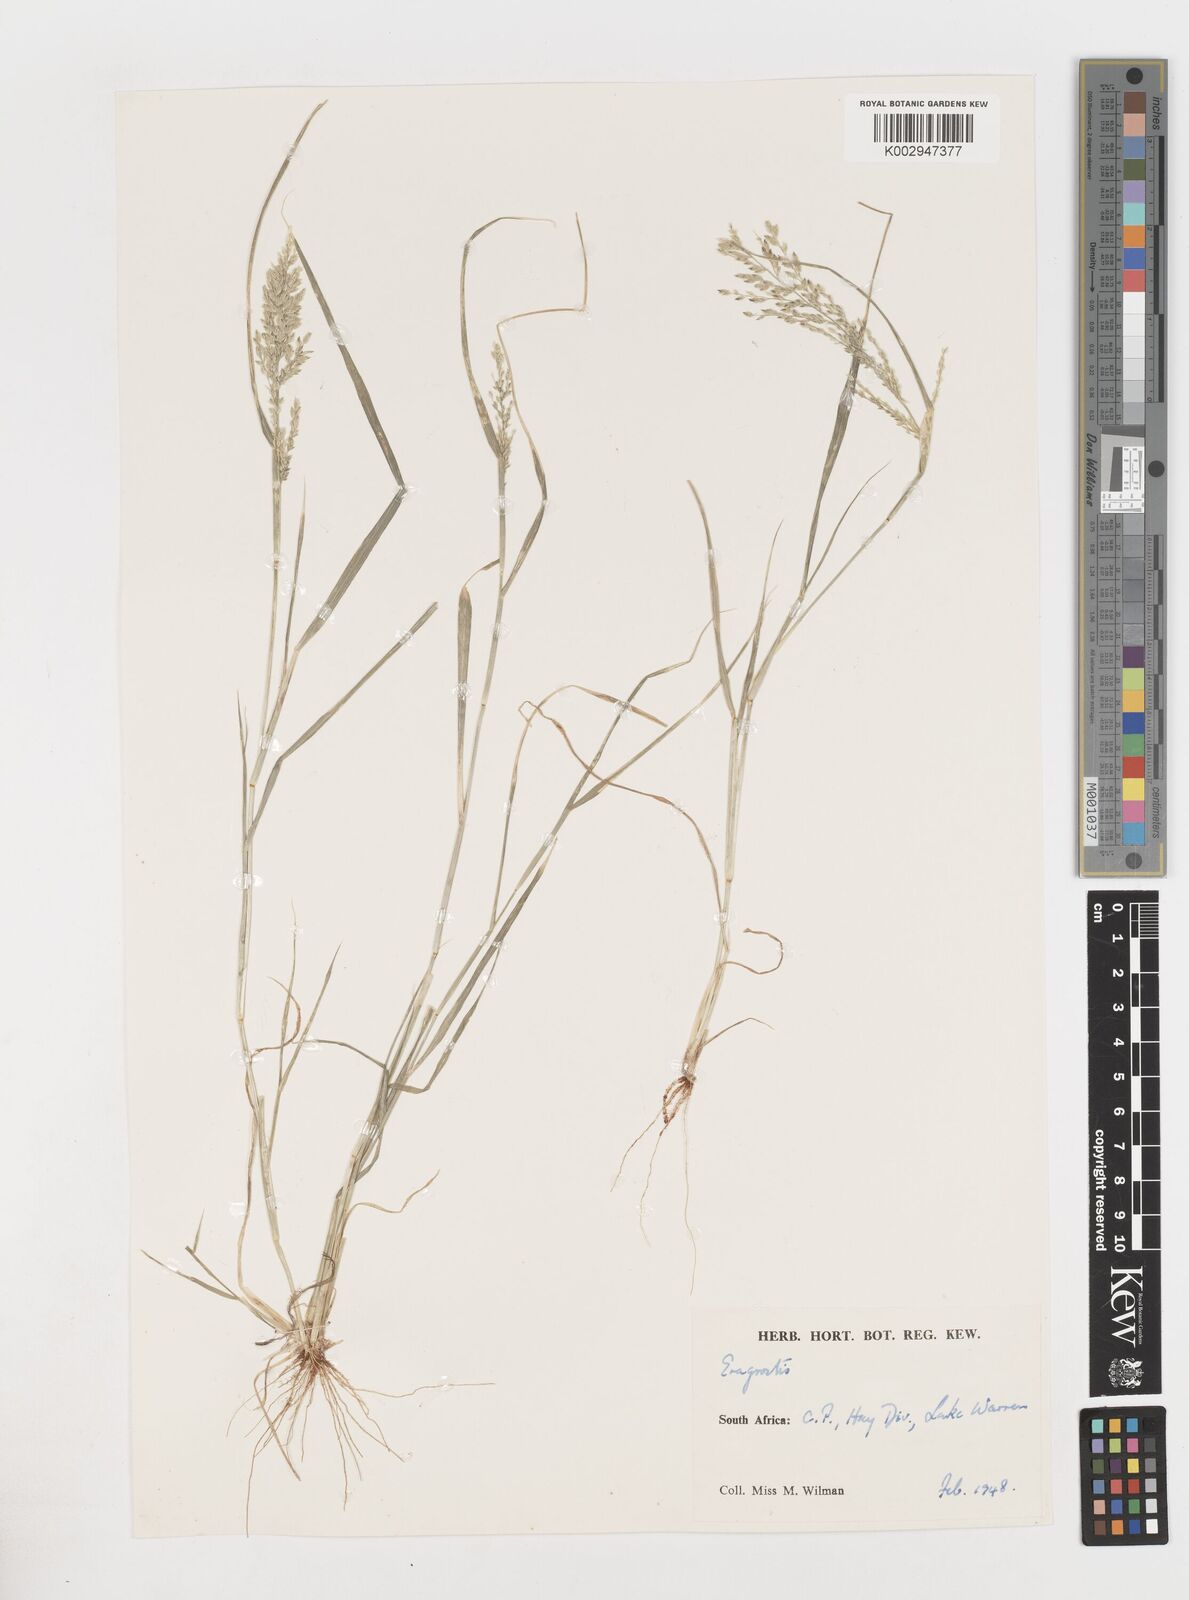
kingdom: Plantae
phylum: Tracheophyta
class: Liliopsida
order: Poales
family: Poaceae
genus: Eragrostis
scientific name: Eragrostis
